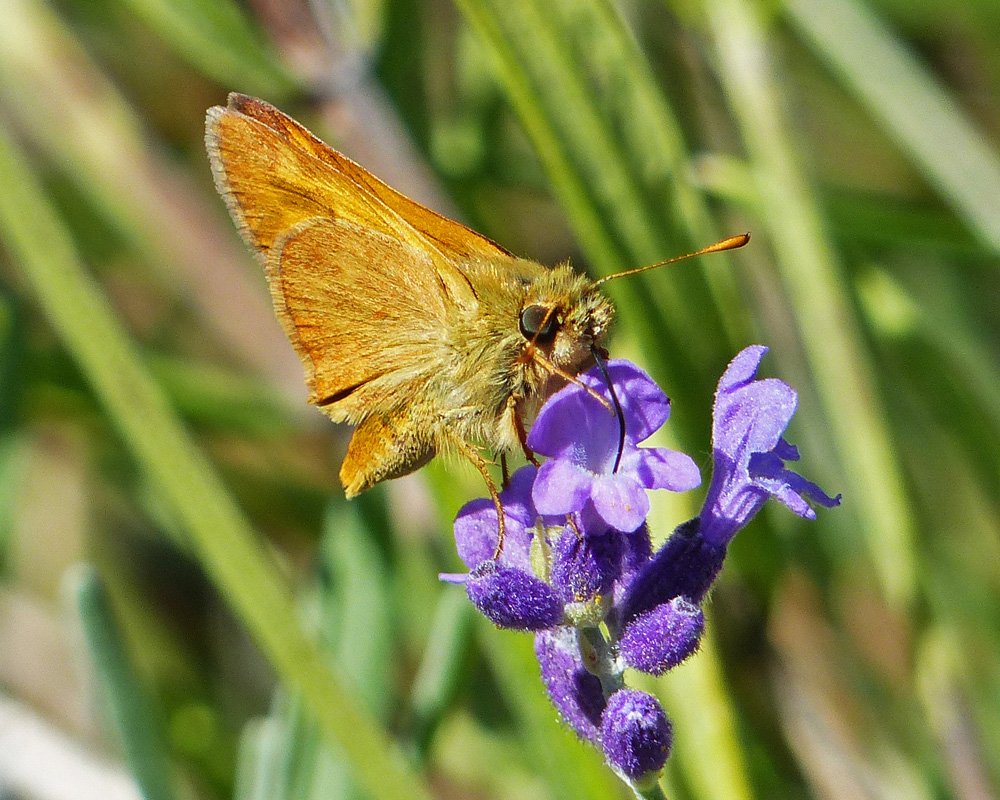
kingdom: Animalia
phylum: Arthropoda
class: Insecta
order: Lepidoptera
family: Hesperiidae
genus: Ochlodes
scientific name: Ochlodes sylvanoides
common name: Woodland Skipper
